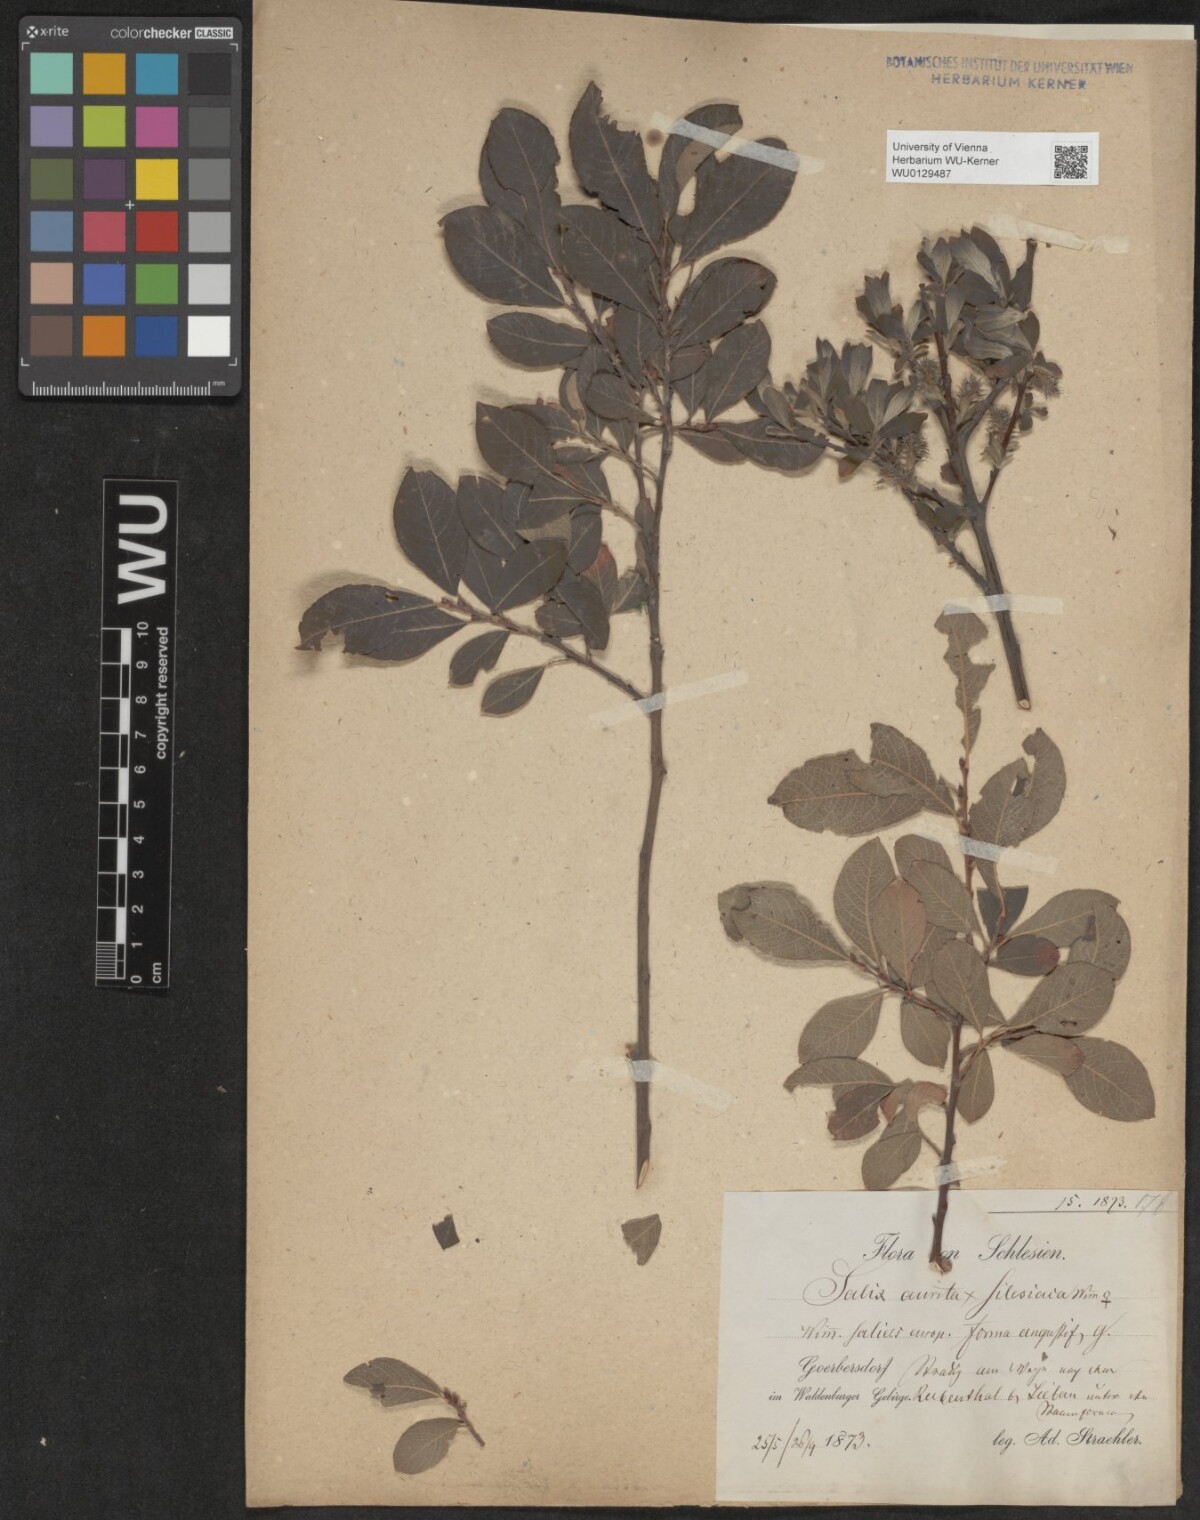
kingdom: Plantae
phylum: Tracheophyta
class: Magnoliopsida
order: Malpighiales
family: Salicaceae
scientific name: Salicaceae
